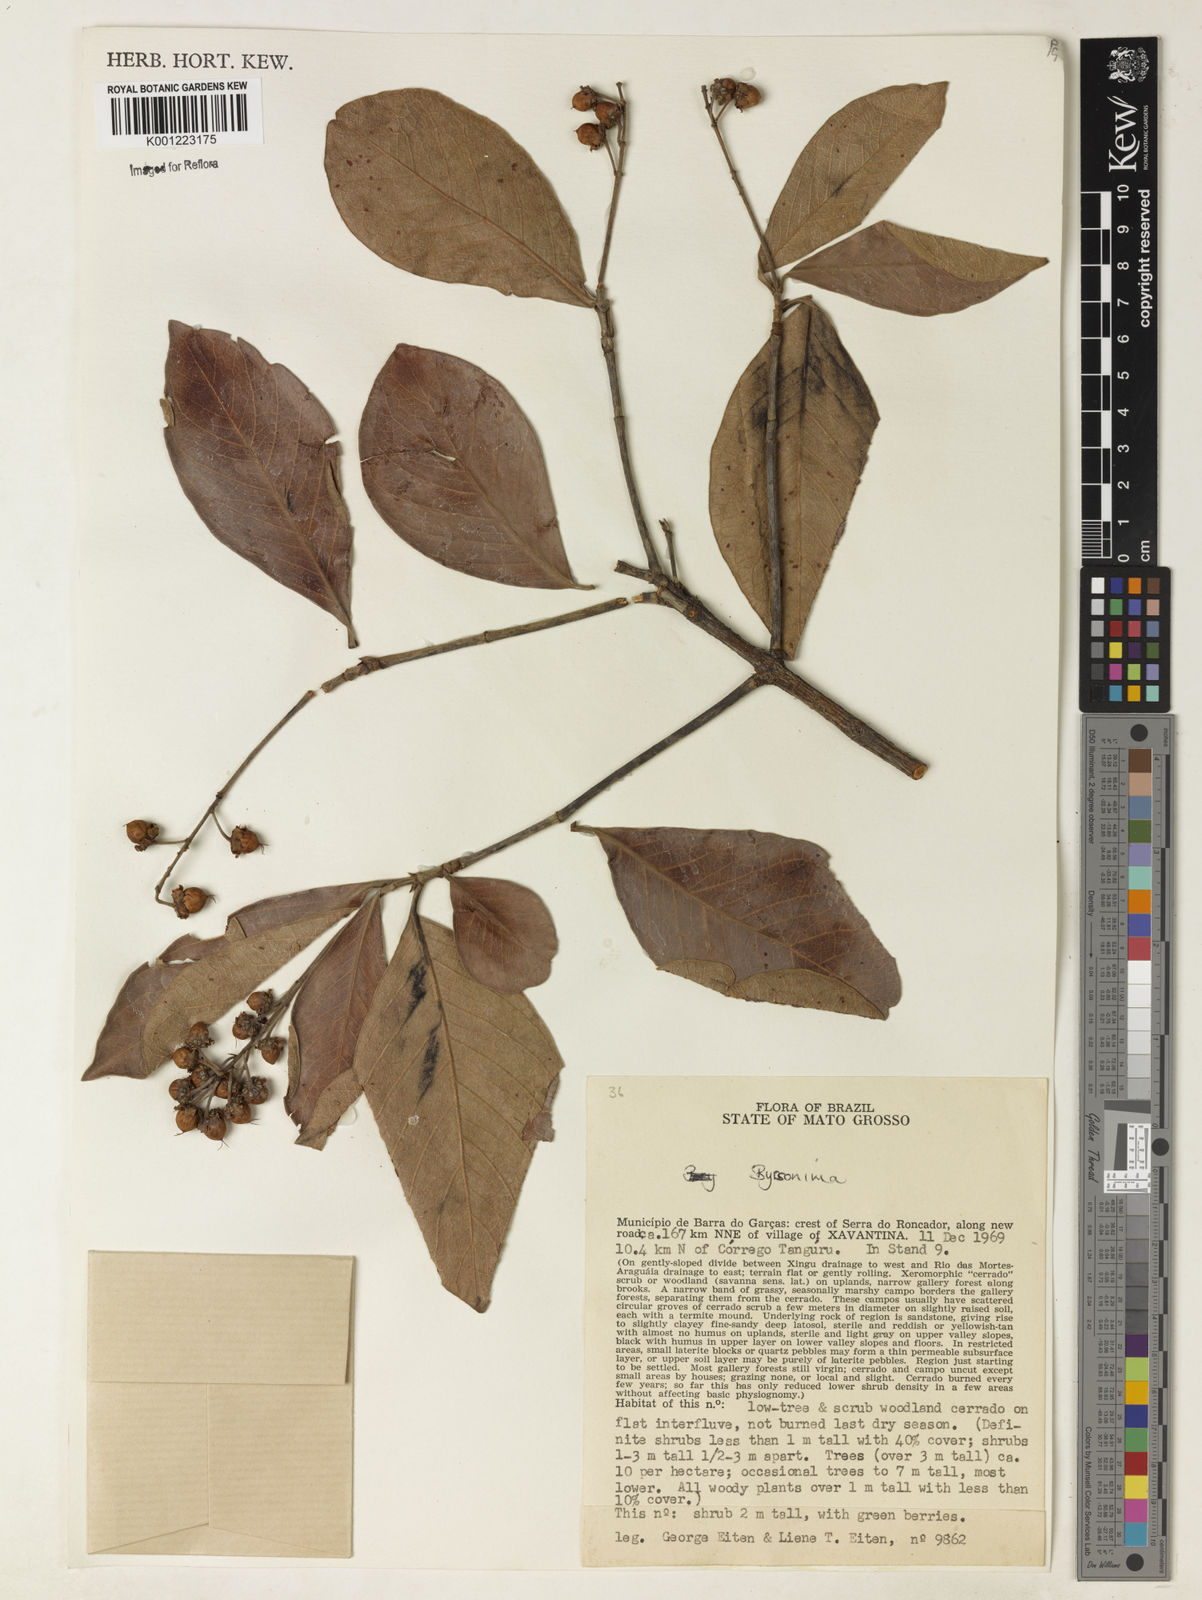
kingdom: Plantae
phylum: Tracheophyta
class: Magnoliopsida
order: Malpighiales
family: Malpighiaceae
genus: Byrsonima
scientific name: Byrsonima
